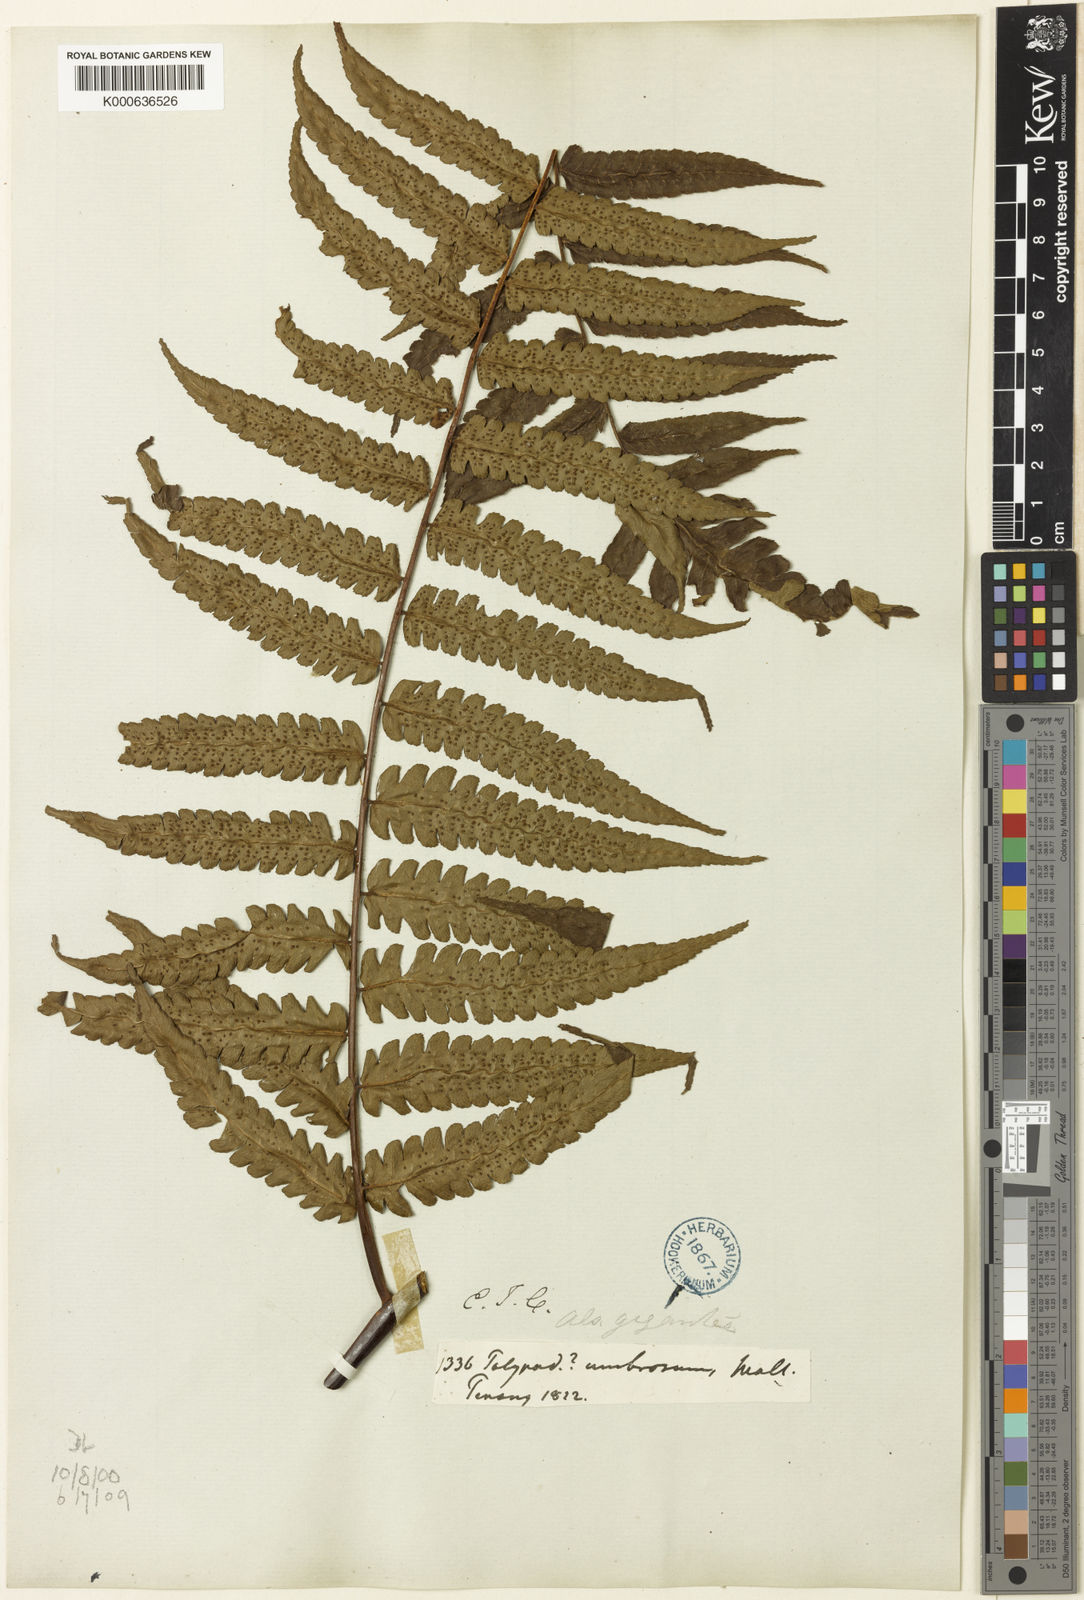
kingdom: Plantae
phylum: Tracheophyta
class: Polypodiopsida
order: Cyatheales
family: Cyatheaceae
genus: Gymnosphaera
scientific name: Gymnosphaera gigantea
